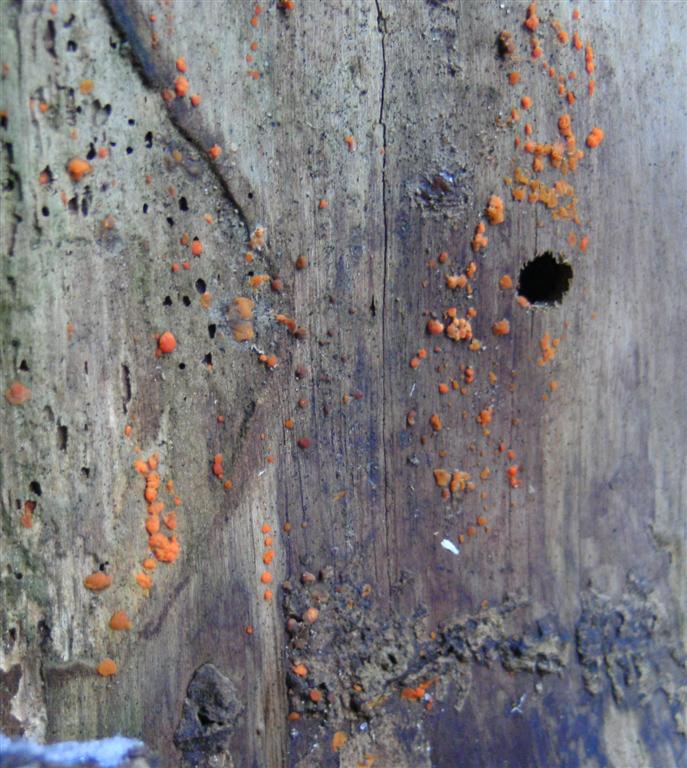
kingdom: Fungi
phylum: Basidiomycota
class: Dacrymycetes
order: Dacrymycetales
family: Dacrymycetaceae
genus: Dacrymyces
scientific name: Dacrymyces stillatus
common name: almindelig tåresvamp
